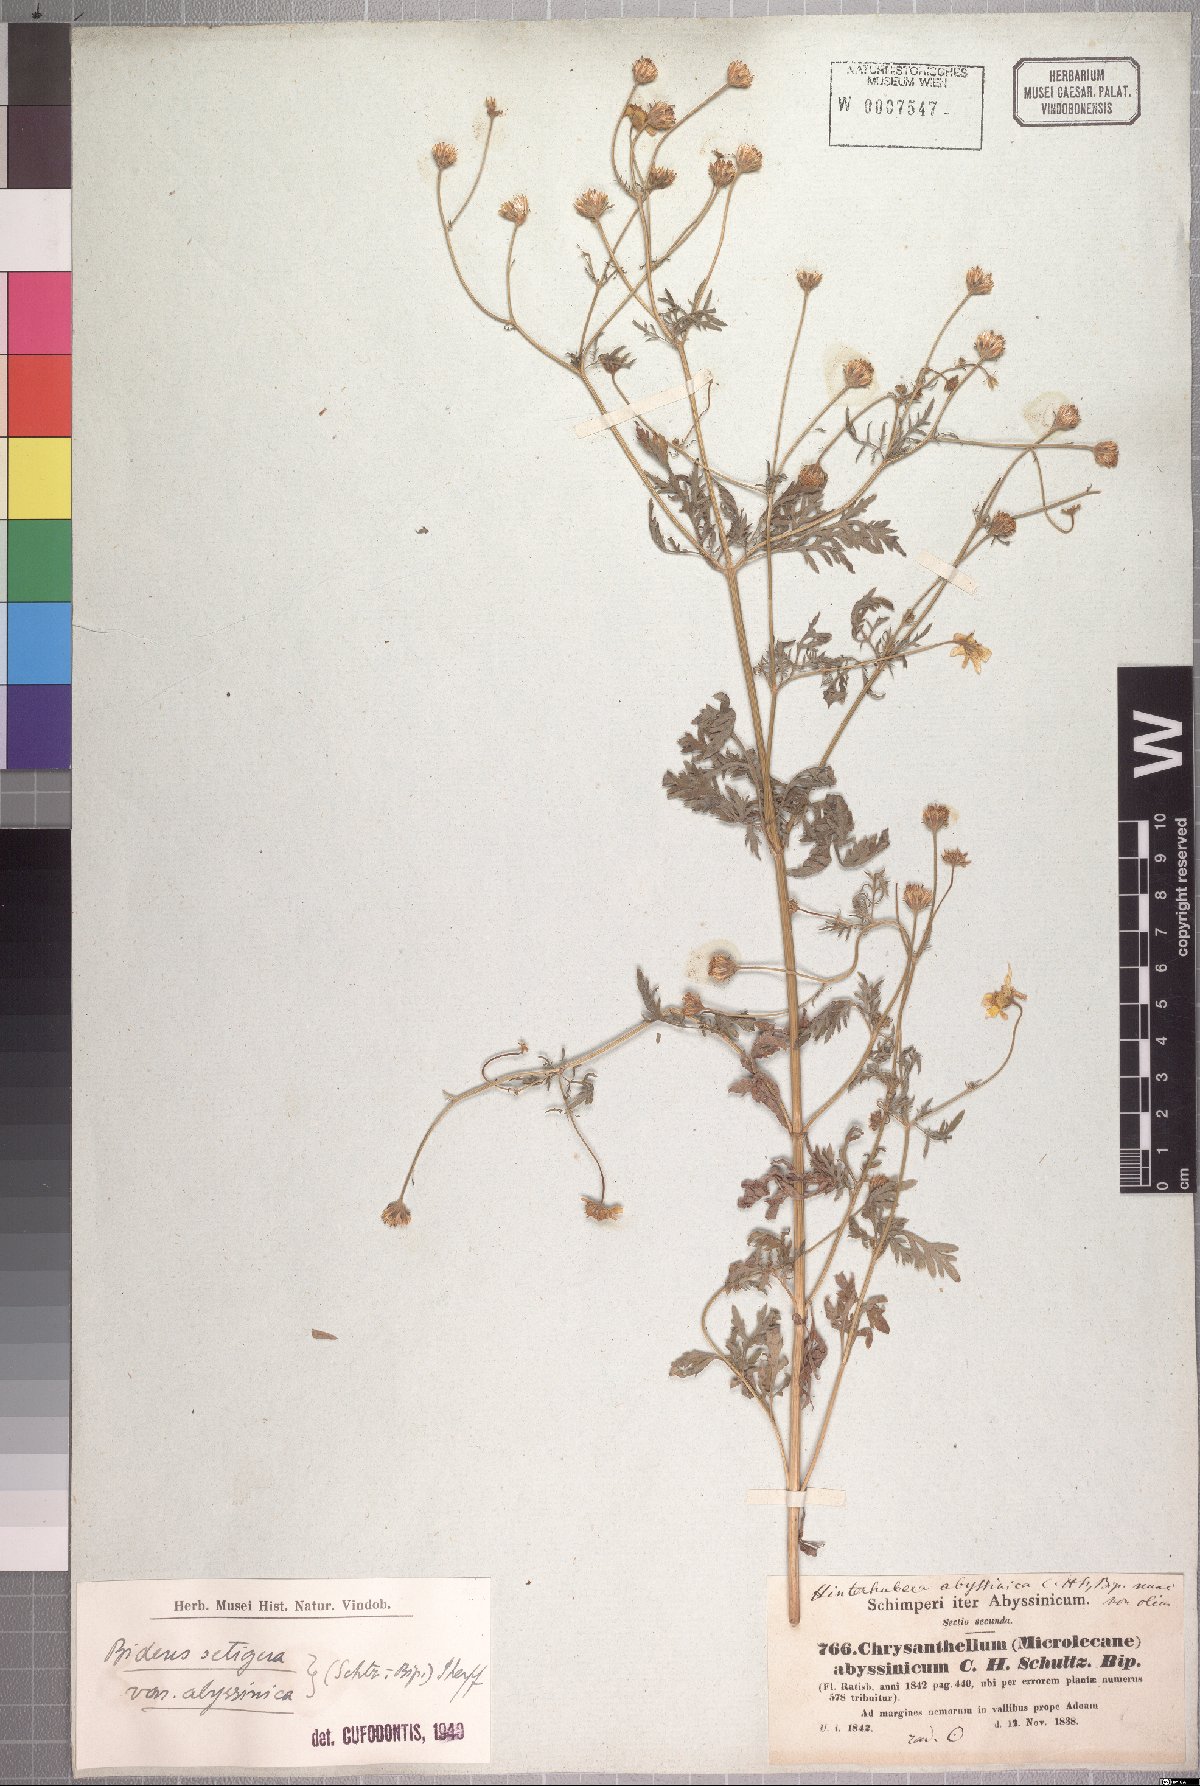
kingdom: Plantae
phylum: Tracheophyta
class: Magnoliopsida
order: Asterales
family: Asteraceae
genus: Bidens
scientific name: Bidens setigera
